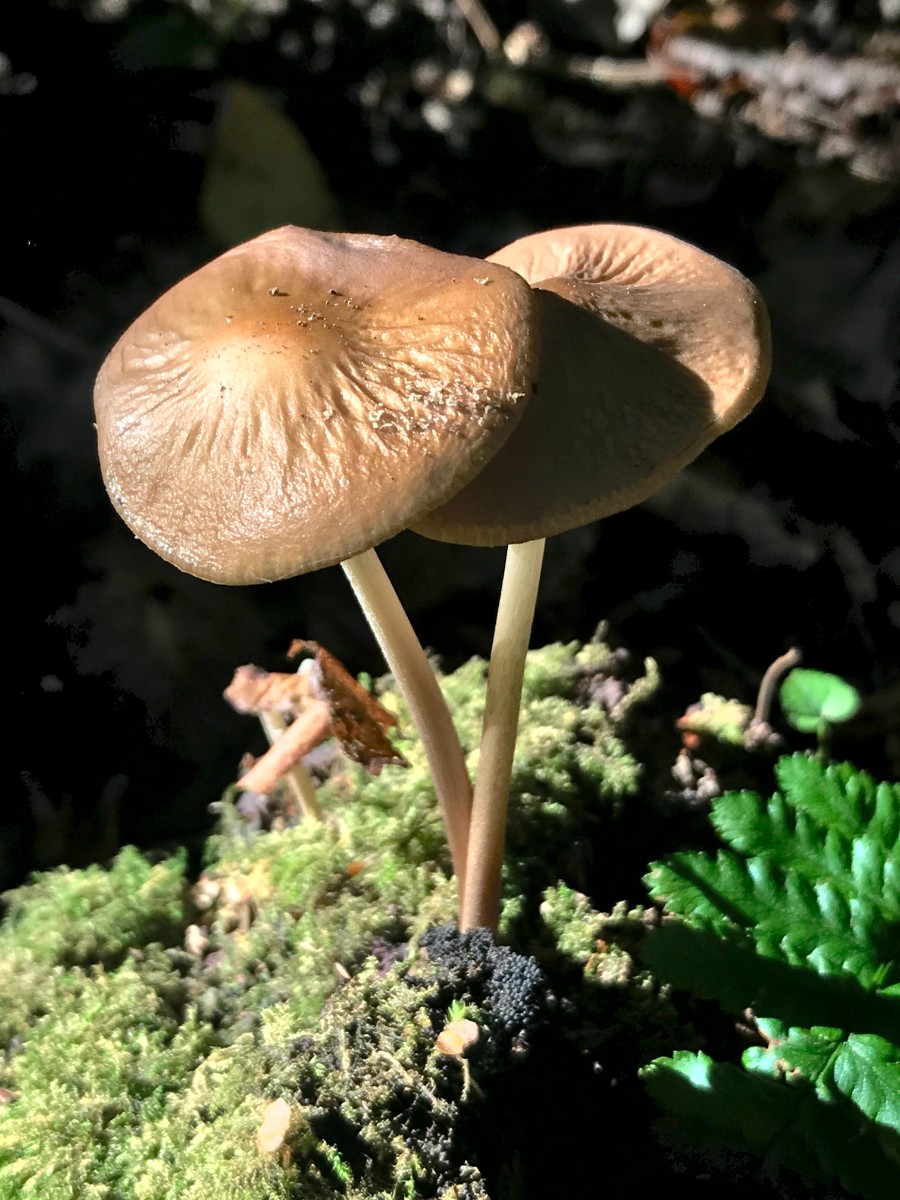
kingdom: Fungi
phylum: Basidiomycota
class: Agaricomycetes
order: Agaricales
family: Physalacriaceae
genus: Hymenopellis
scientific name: Hymenopellis radicata
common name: almindelig pælerodshat
